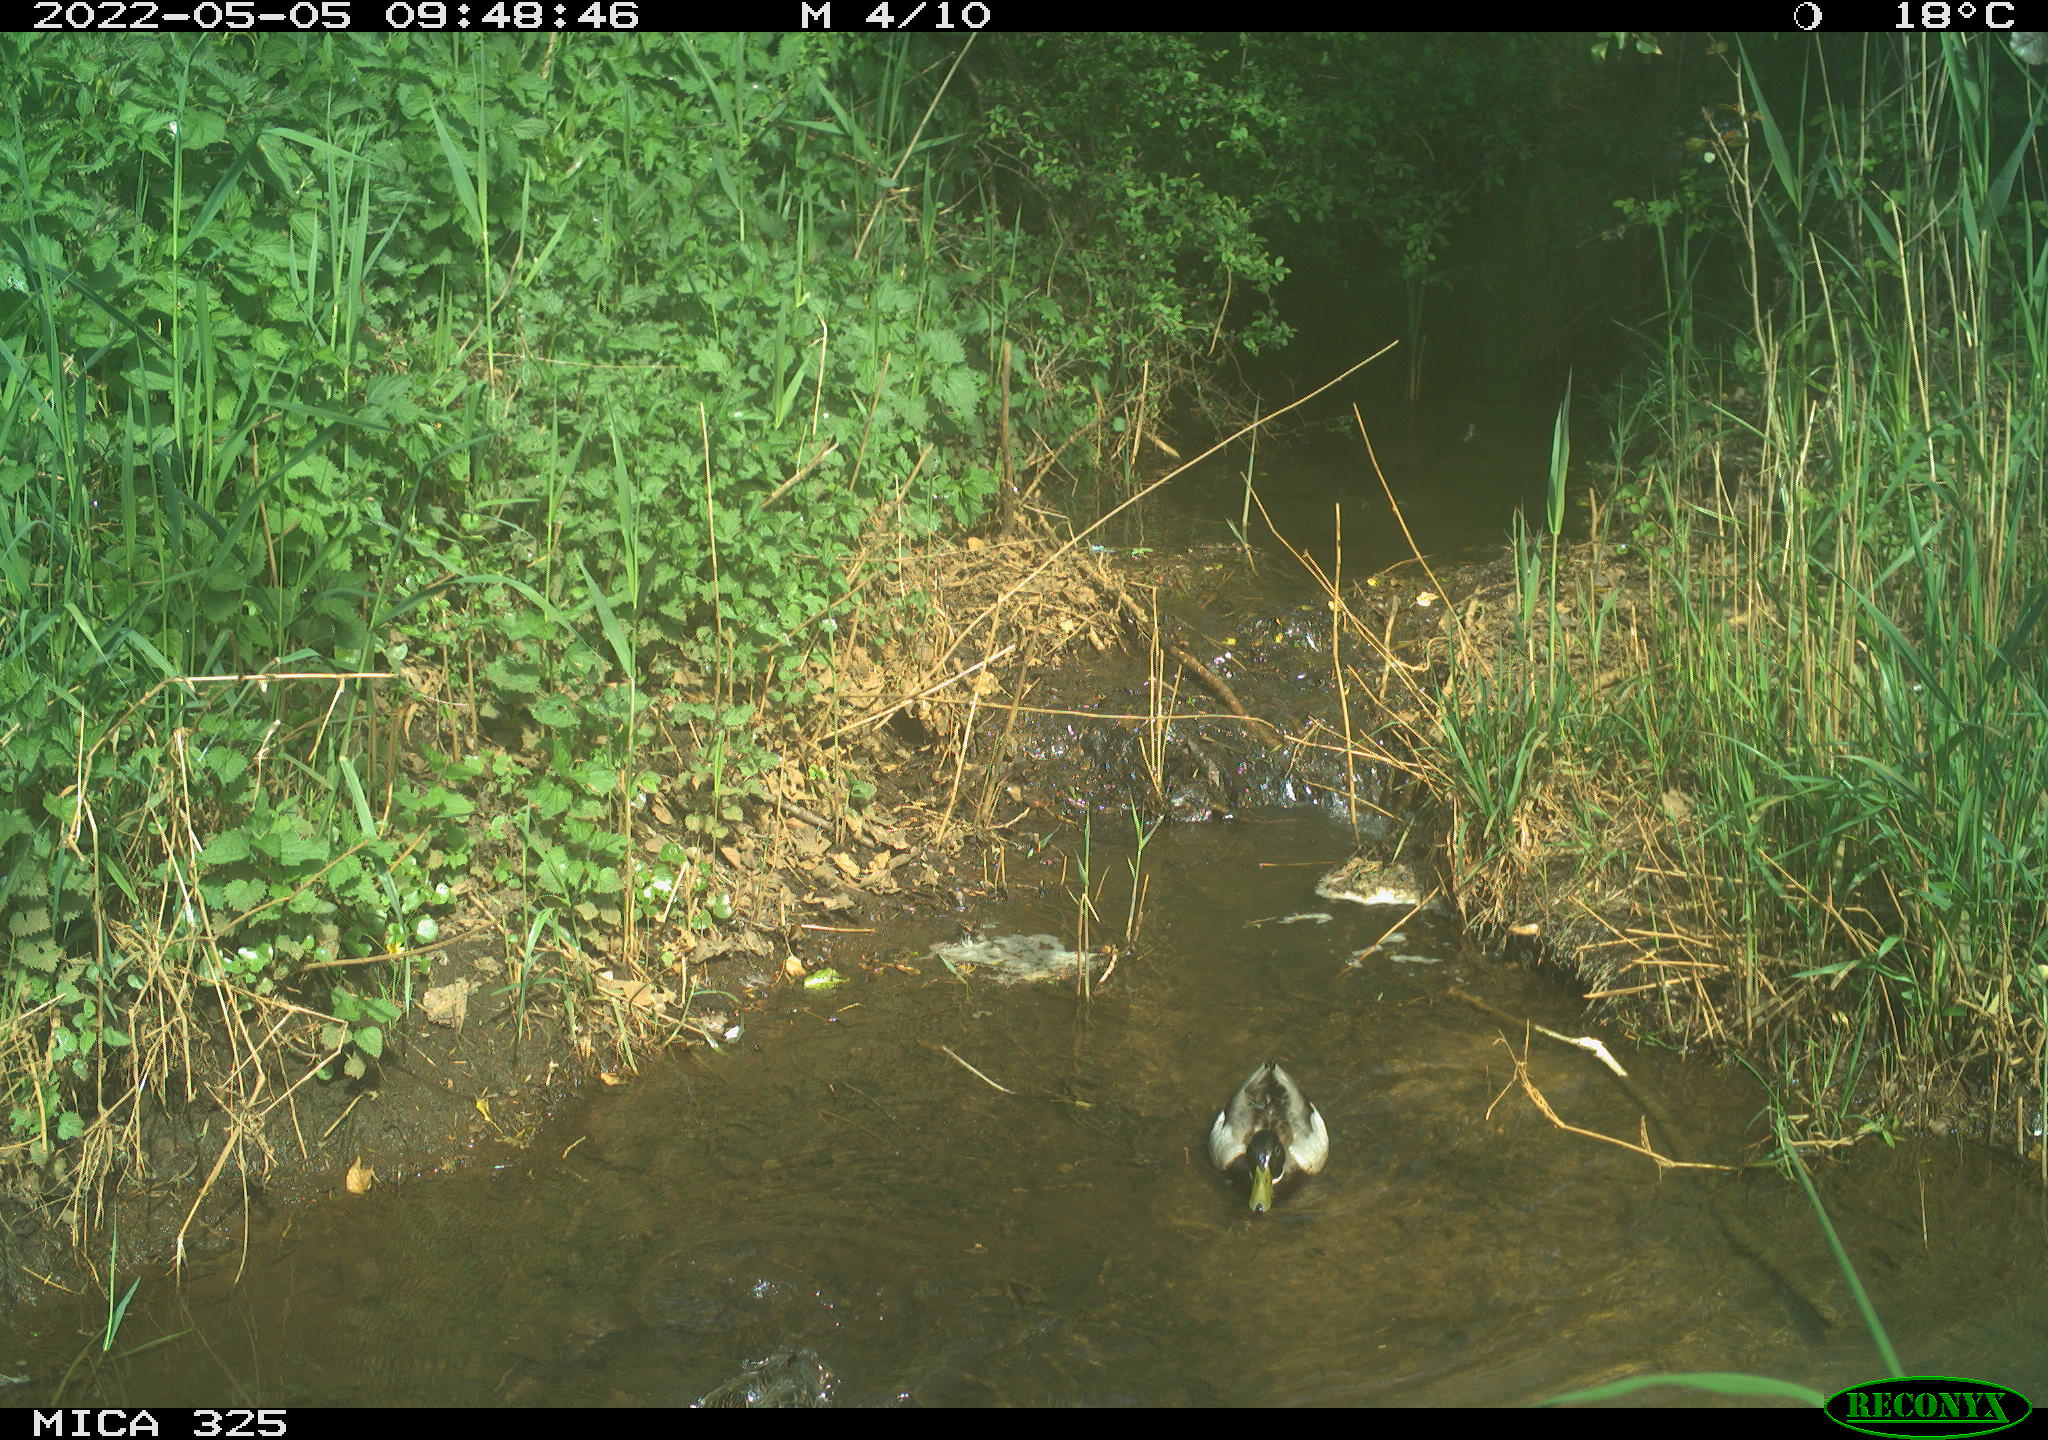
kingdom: Animalia
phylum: Chordata
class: Aves
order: Anseriformes
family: Anatidae
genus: Anas
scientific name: Anas platyrhynchos
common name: Mallard
